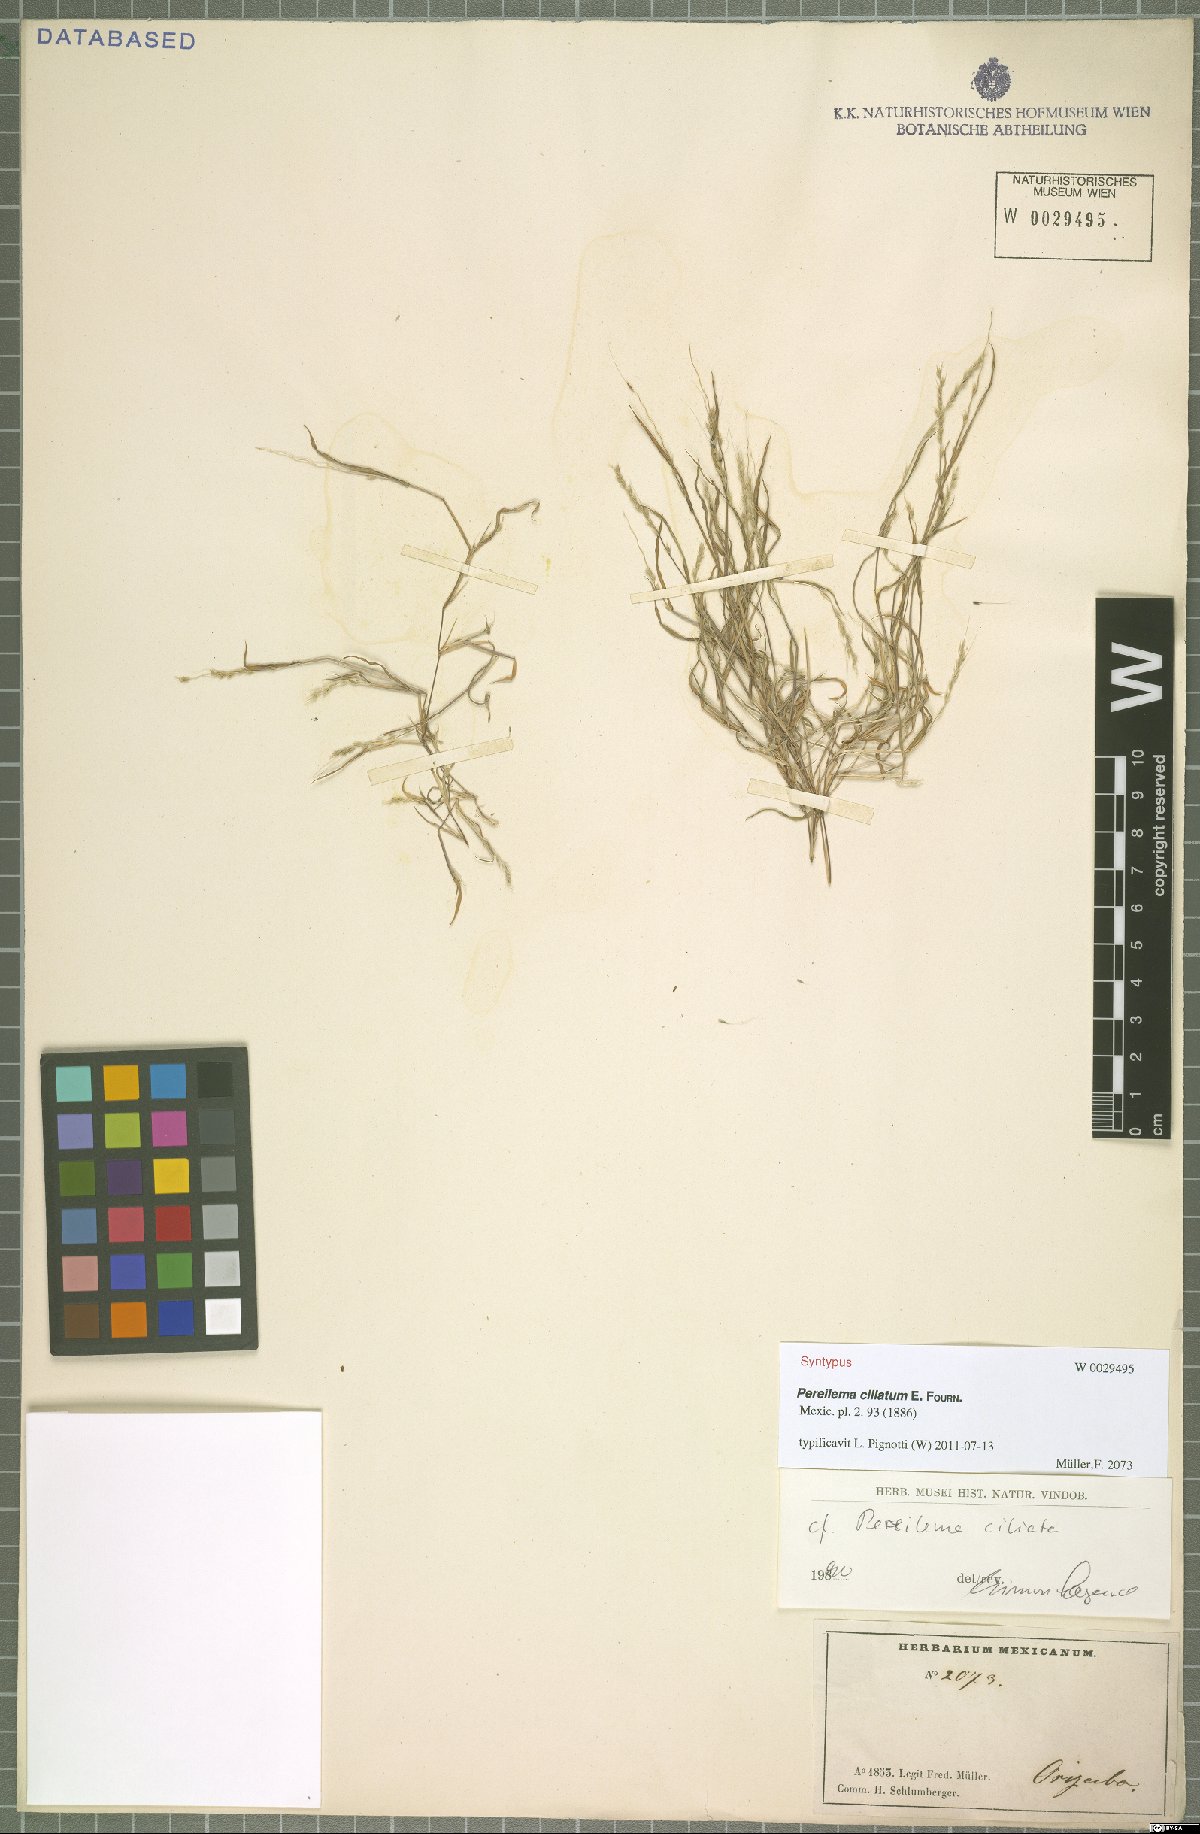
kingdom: Plantae
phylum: Tracheophyta
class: Liliopsida
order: Poales
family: Poaceae
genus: Muhlenbergia
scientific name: Muhlenbergia plumiseta
